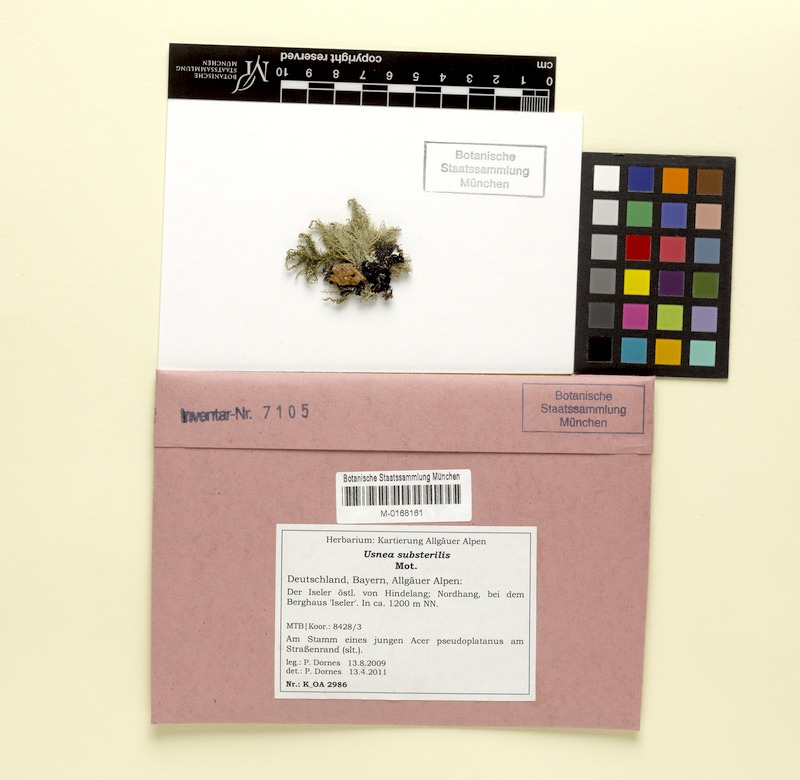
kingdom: Fungi
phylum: Ascomycota
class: Lecanoromycetes
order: Lecanorales
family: Parmeliaceae
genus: Usnea
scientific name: Usnea substerilis
